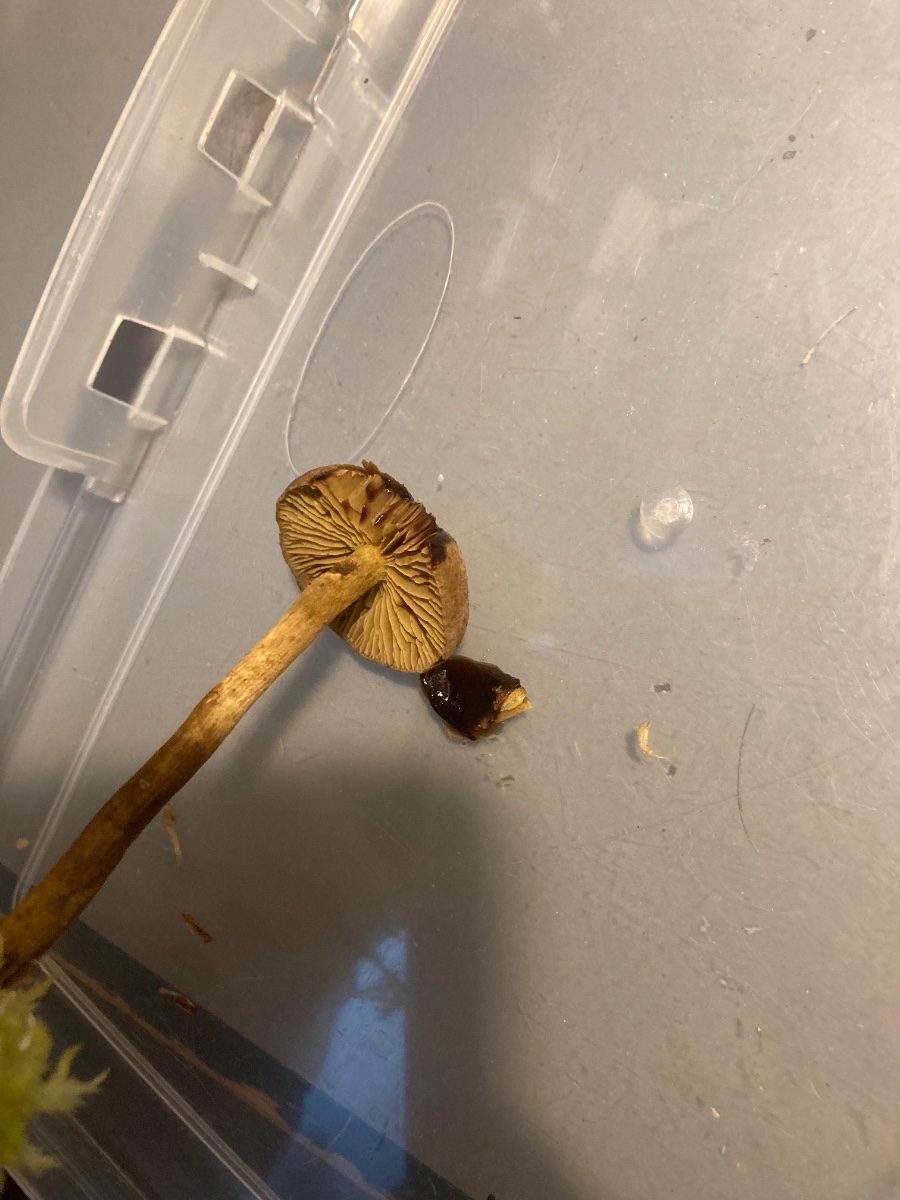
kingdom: Fungi
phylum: Basidiomycota
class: Agaricomycetes
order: Agaricales
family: Cortinariaceae
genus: Cortinarius
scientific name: Cortinarius chrysolitus
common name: tørve-slørhat
